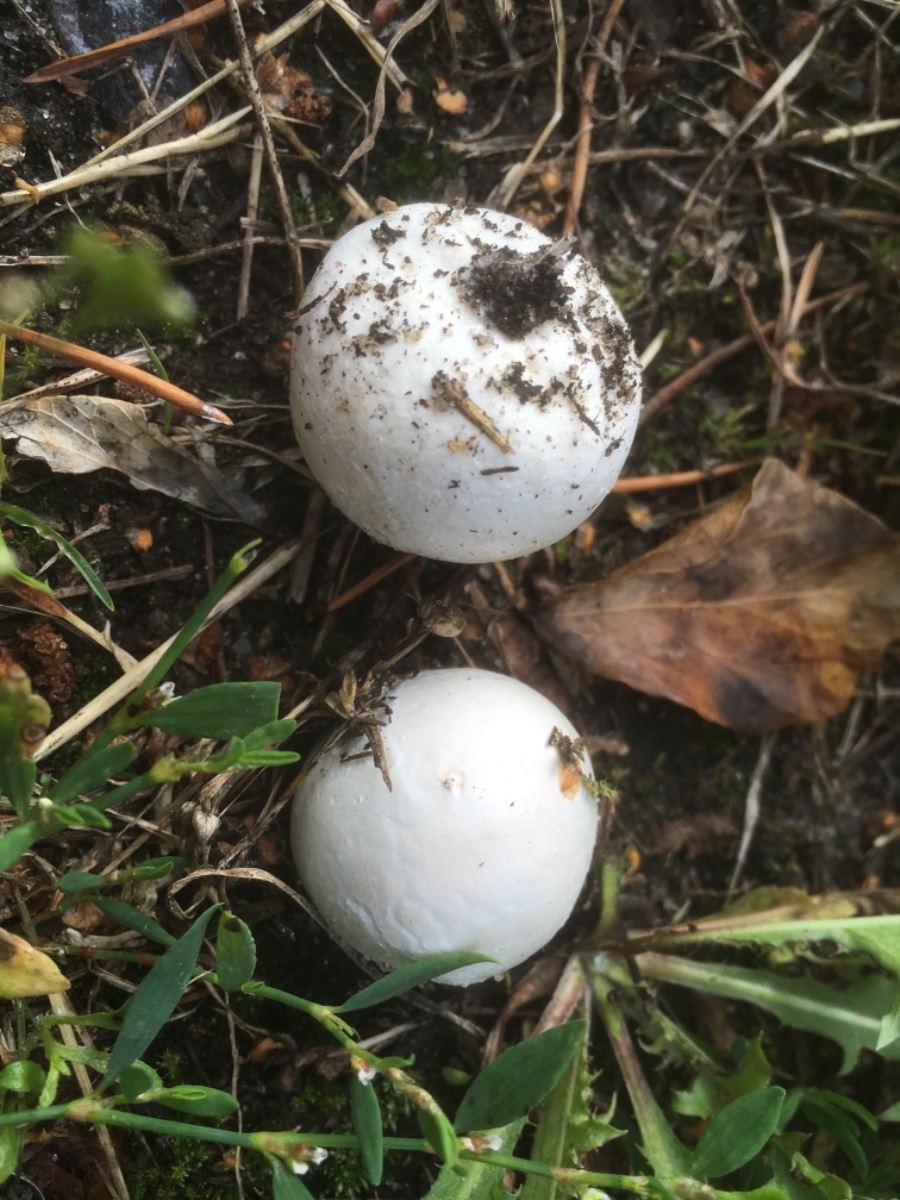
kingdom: Fungi
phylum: Basidiomycota
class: Agaricomycetes
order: Agaricales
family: Lycoperdaceae
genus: Bovista
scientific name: Bovista
